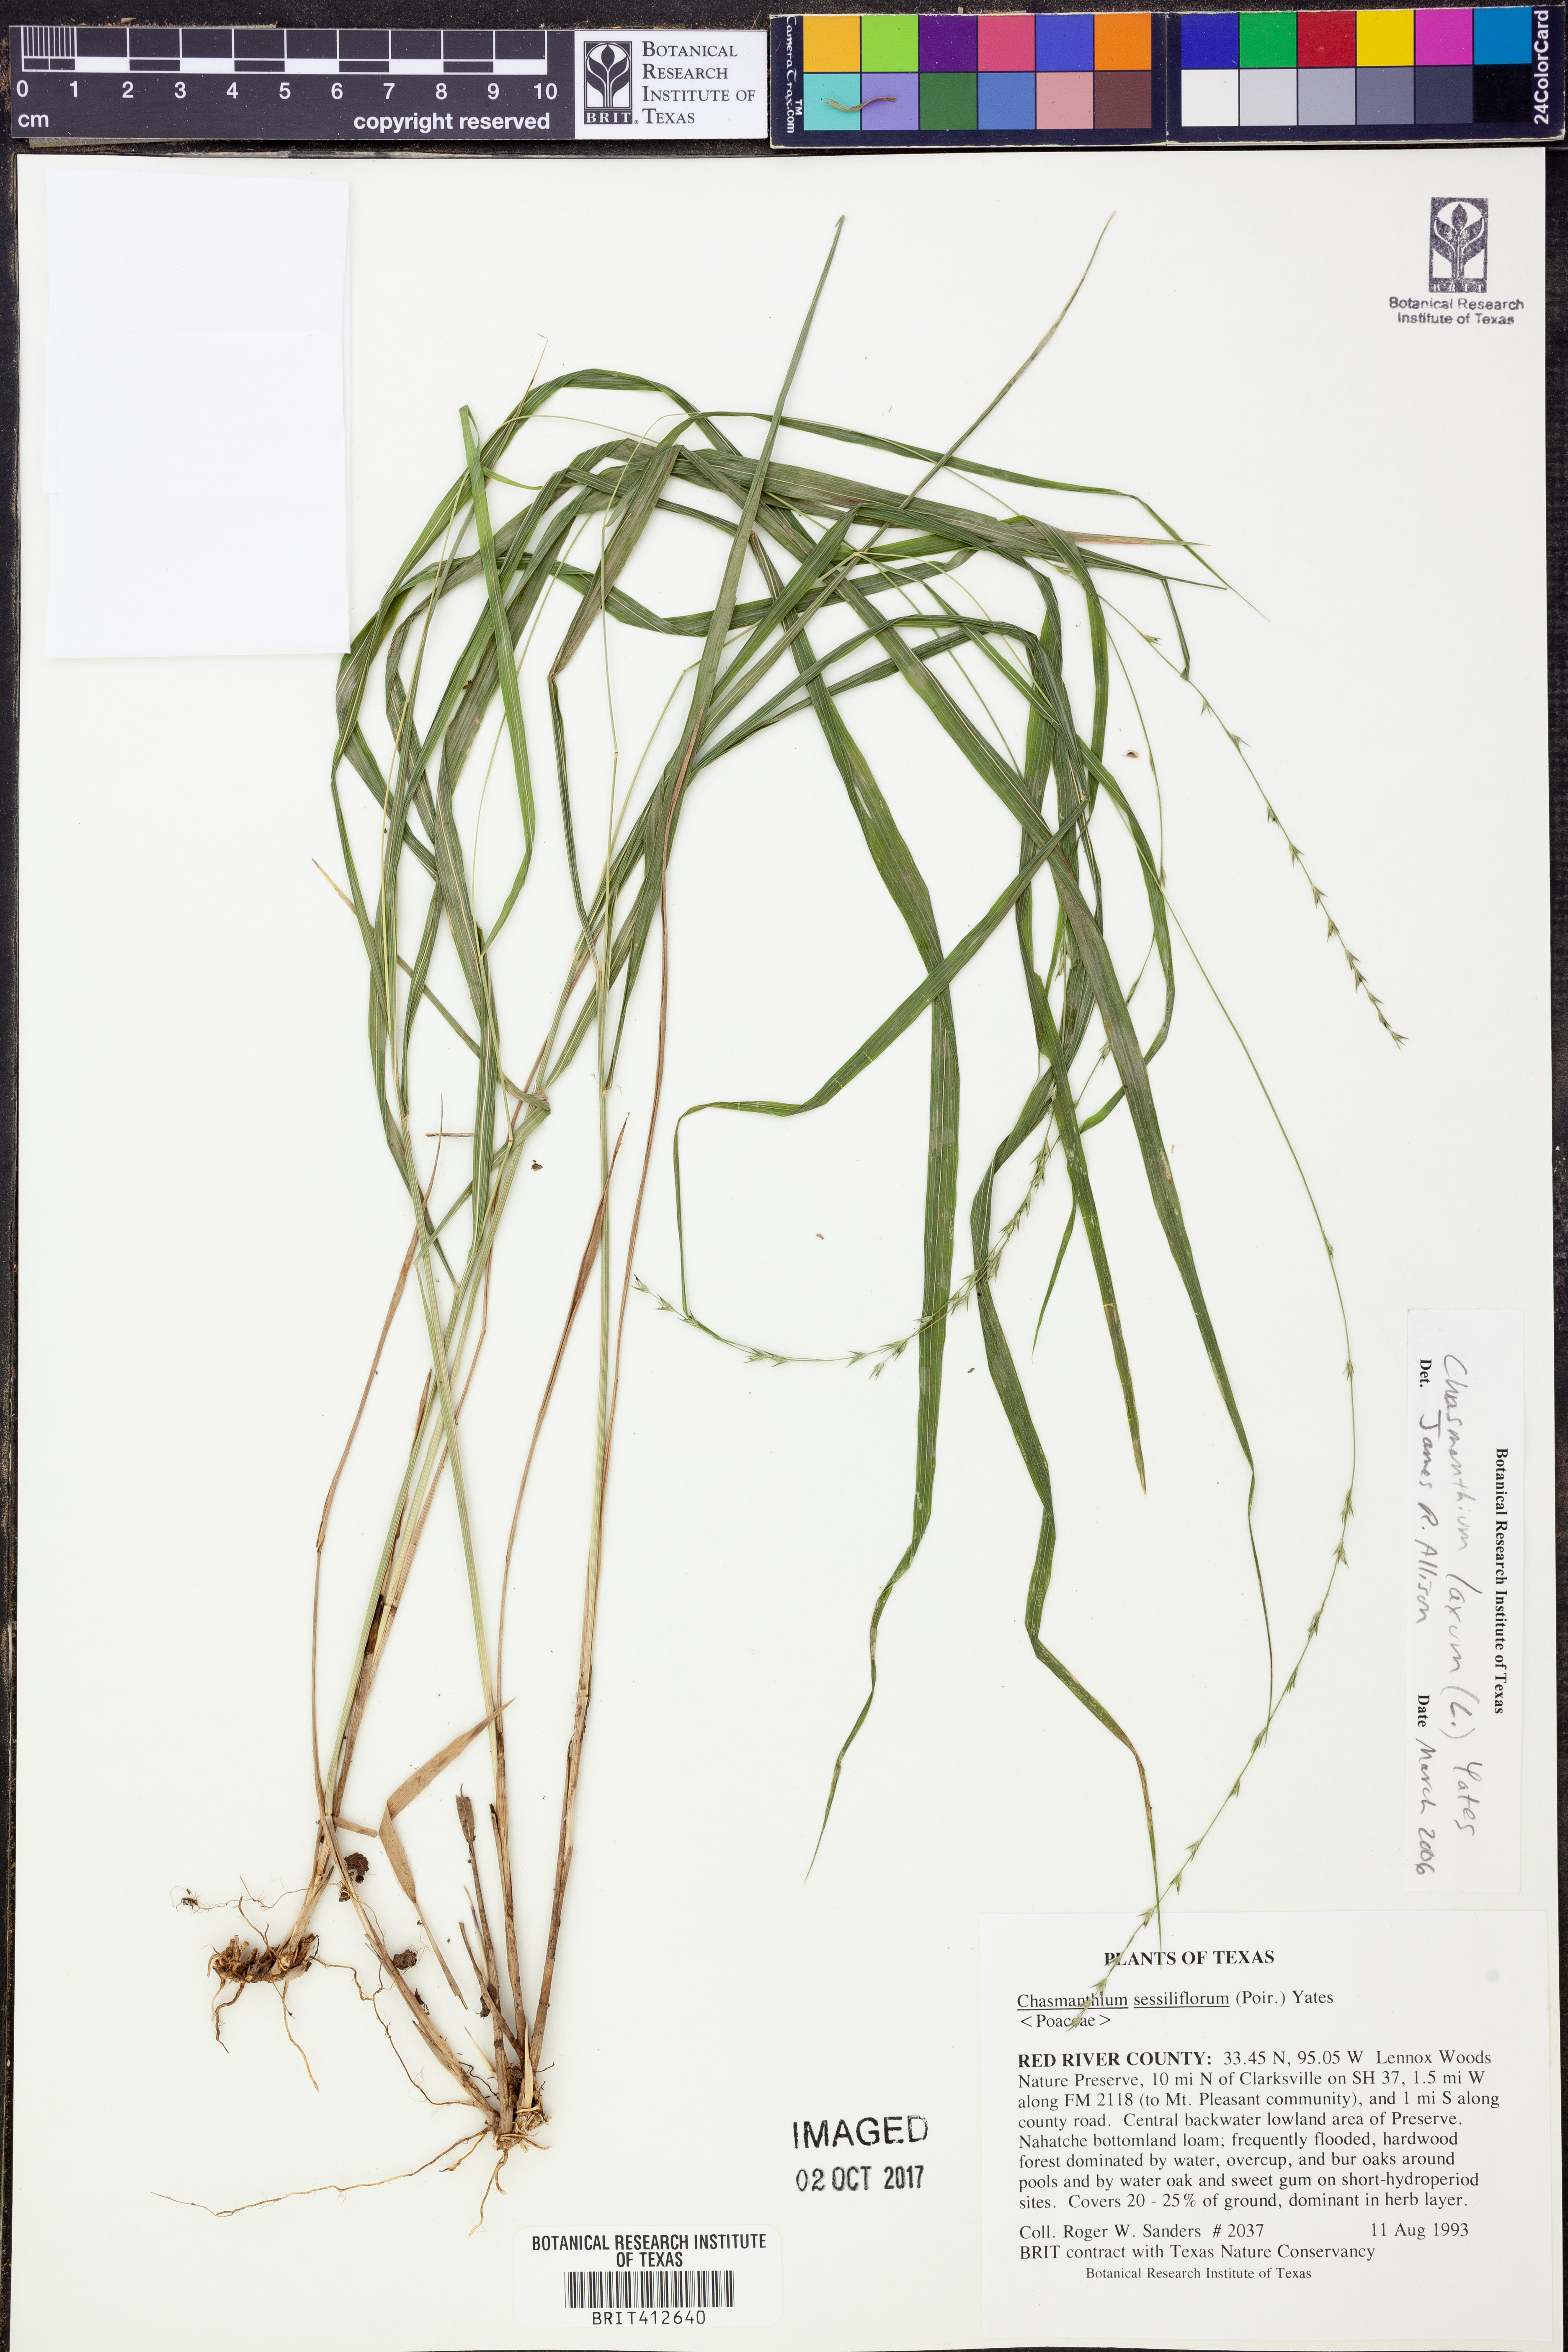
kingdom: Plantae
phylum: Tracheophyta
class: Liliopsida
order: Poales
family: Poaceae
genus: Chasmanthium
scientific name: Chasmanthium laxum
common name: Slender chasmanthium
